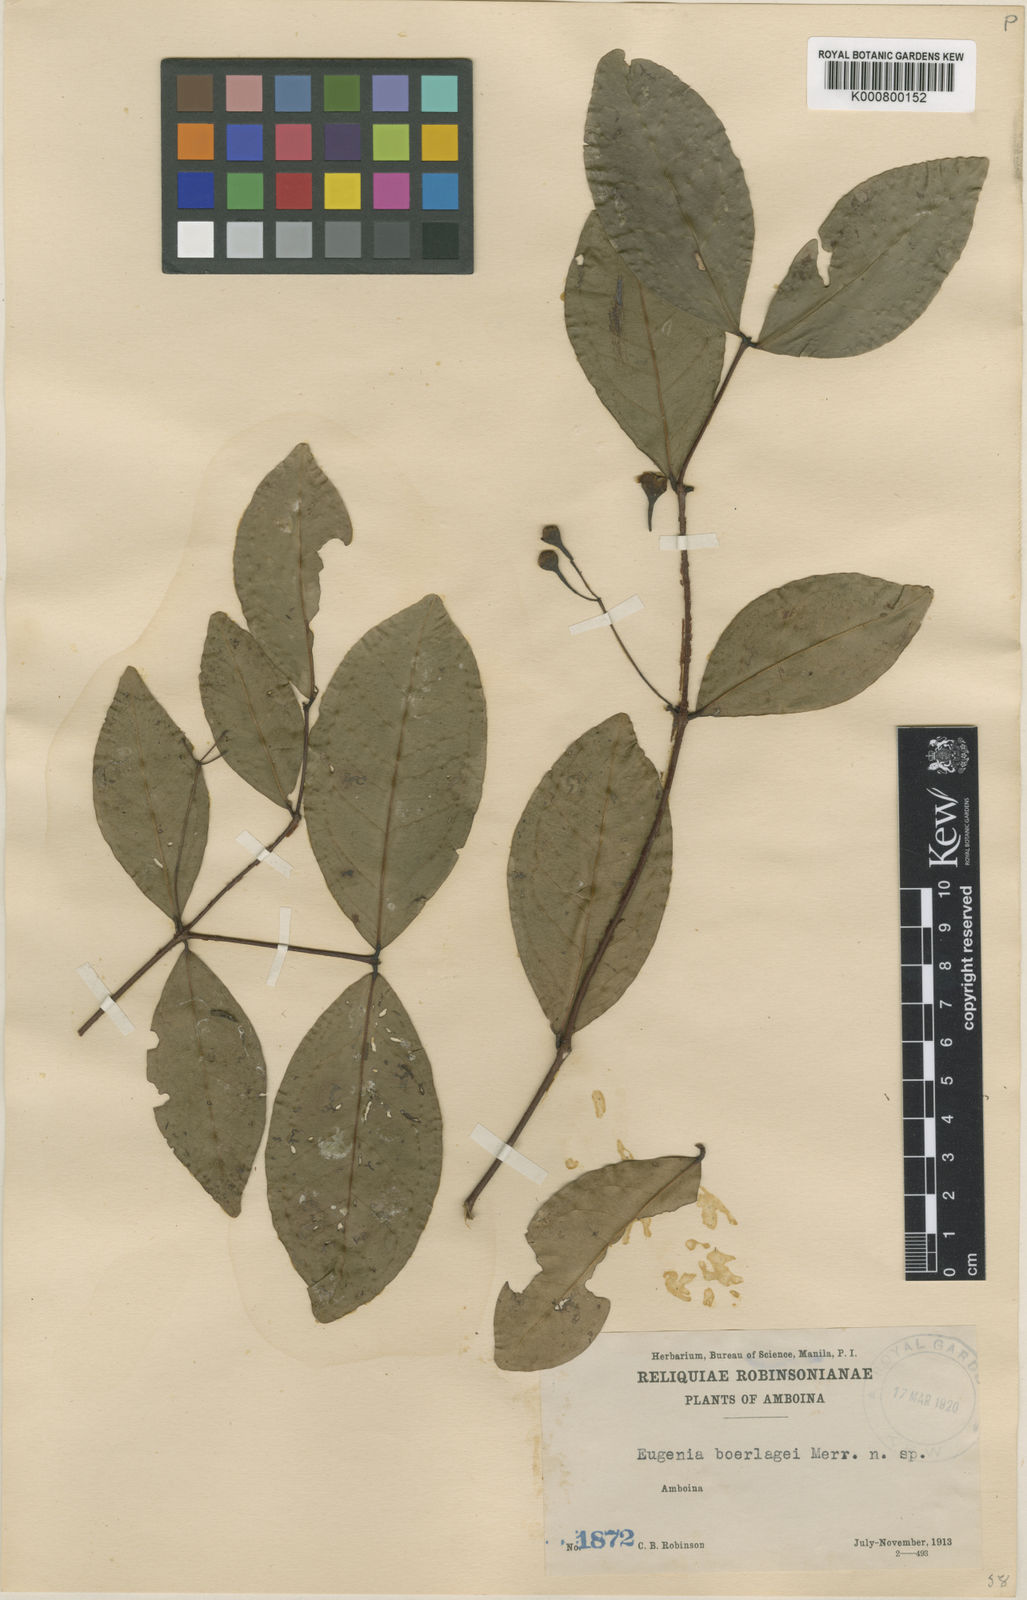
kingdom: Plantae
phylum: Tracheophyta
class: Magnoliopsida
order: Myrtales
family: Myrtaceae
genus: Syzygium
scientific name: Syzygium boerlagei
